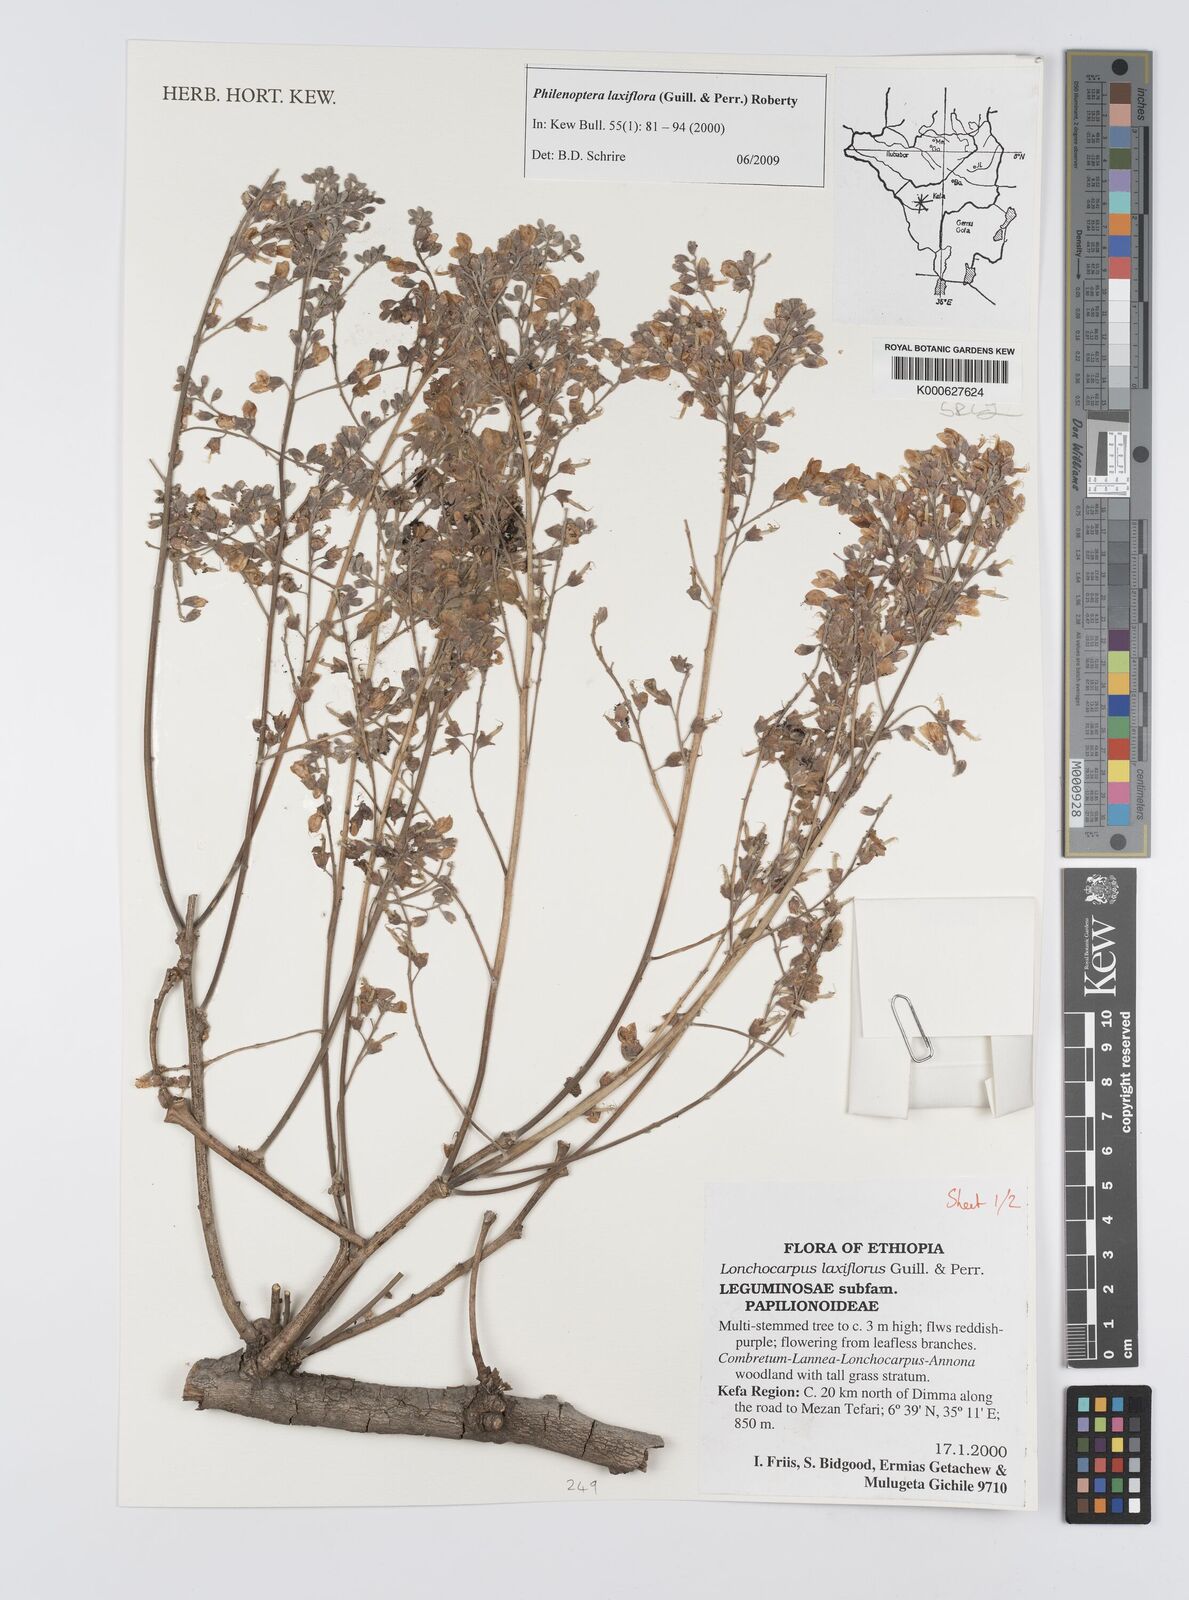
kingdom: Plantae
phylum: Tracheophyta
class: Magnoliopsida
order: Fabales
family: Fabaceae
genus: Philenoptera
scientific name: Philenoptera laxiflora
